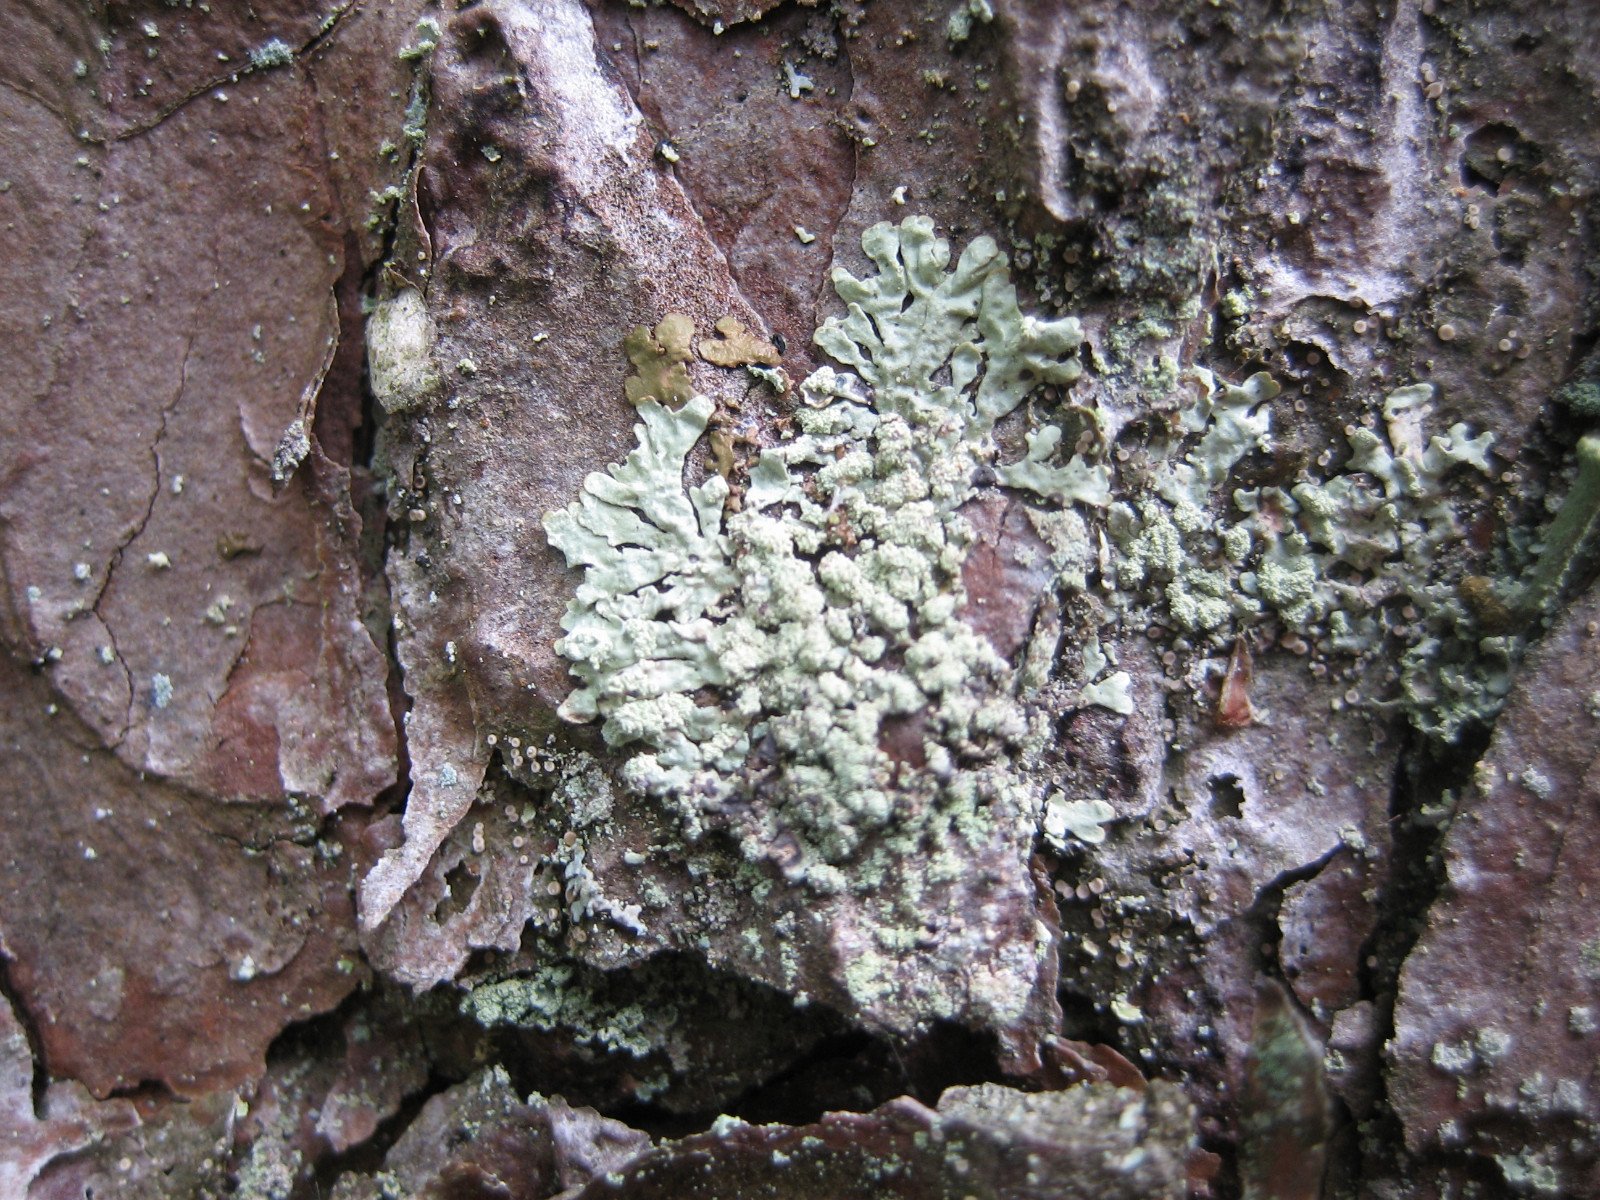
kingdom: Fungi
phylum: Ascomycota
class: Lecanoromycetes
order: Lecanorales
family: Parmeliaceae
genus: Parmeliopsis
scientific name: Parmeliopsis ambigua
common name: gul stolpelav
